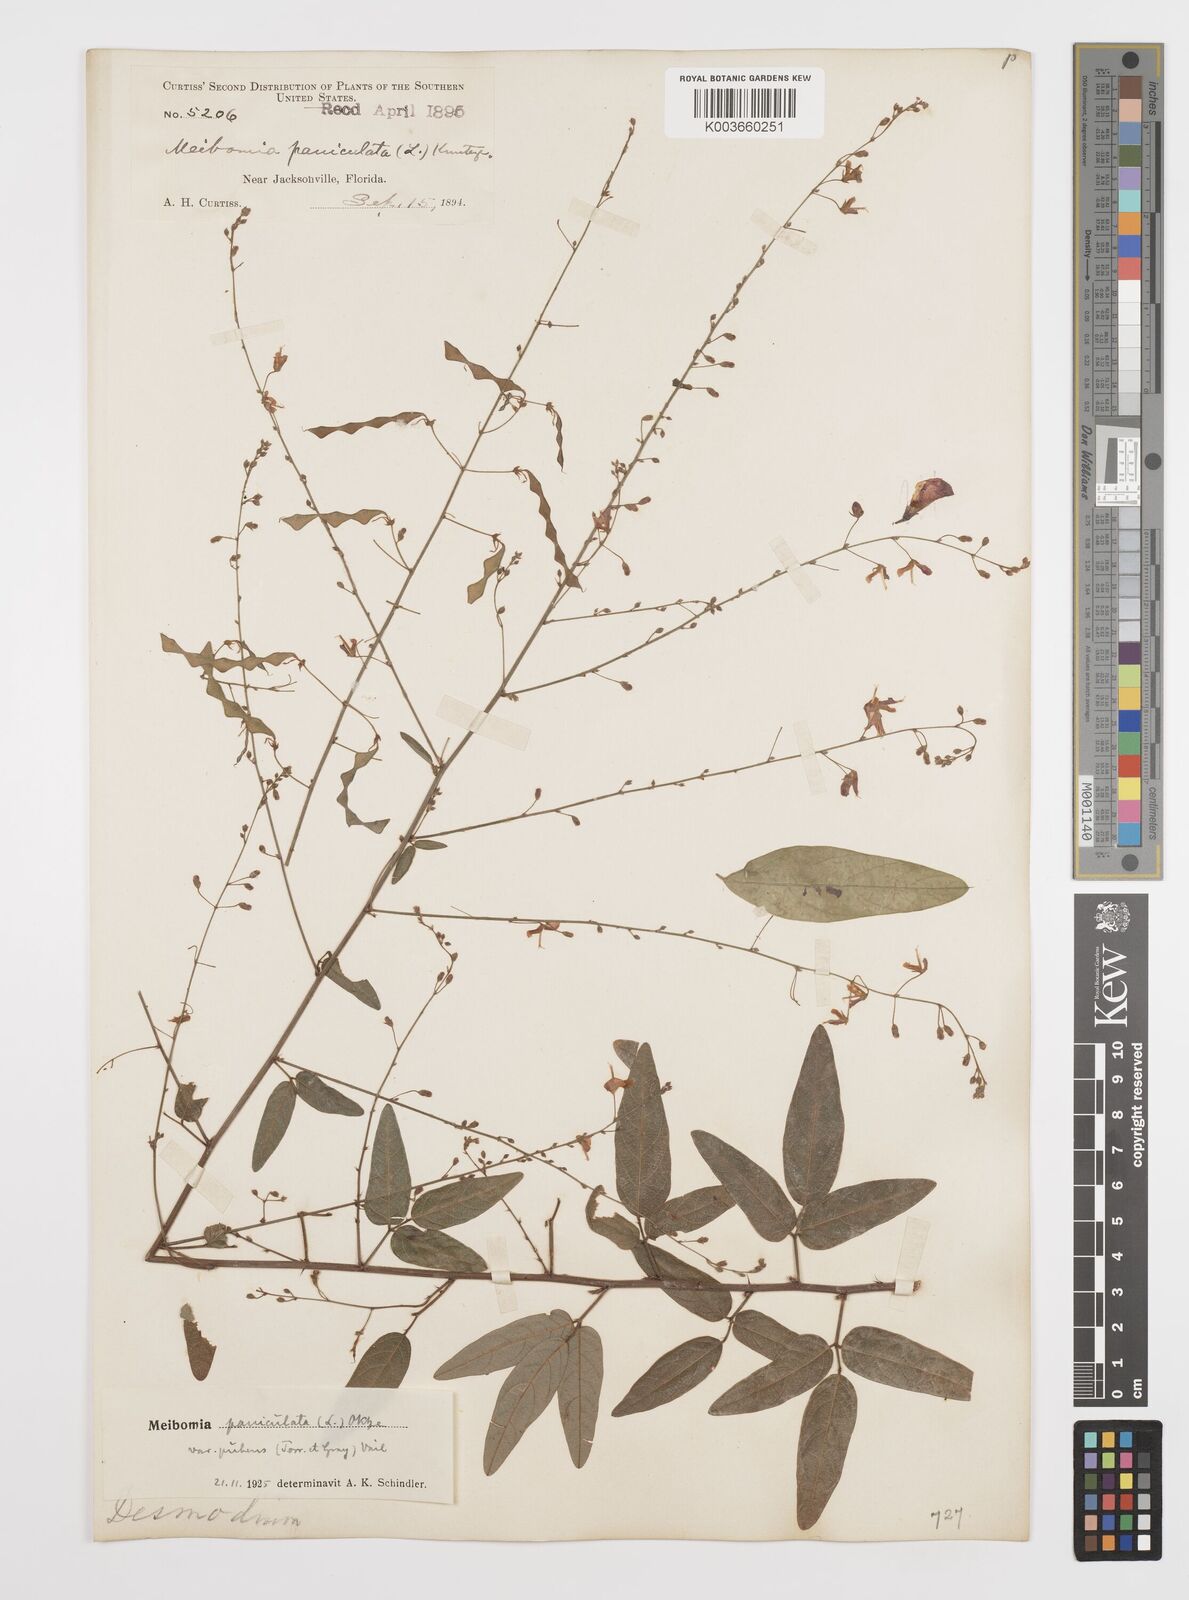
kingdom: Plantae
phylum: Tracheophyta
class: Magnoliopsida
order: Fabales
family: Fabaceae
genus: Desmodium
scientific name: Desmodium paniculatum
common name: Panicled tick-clover
